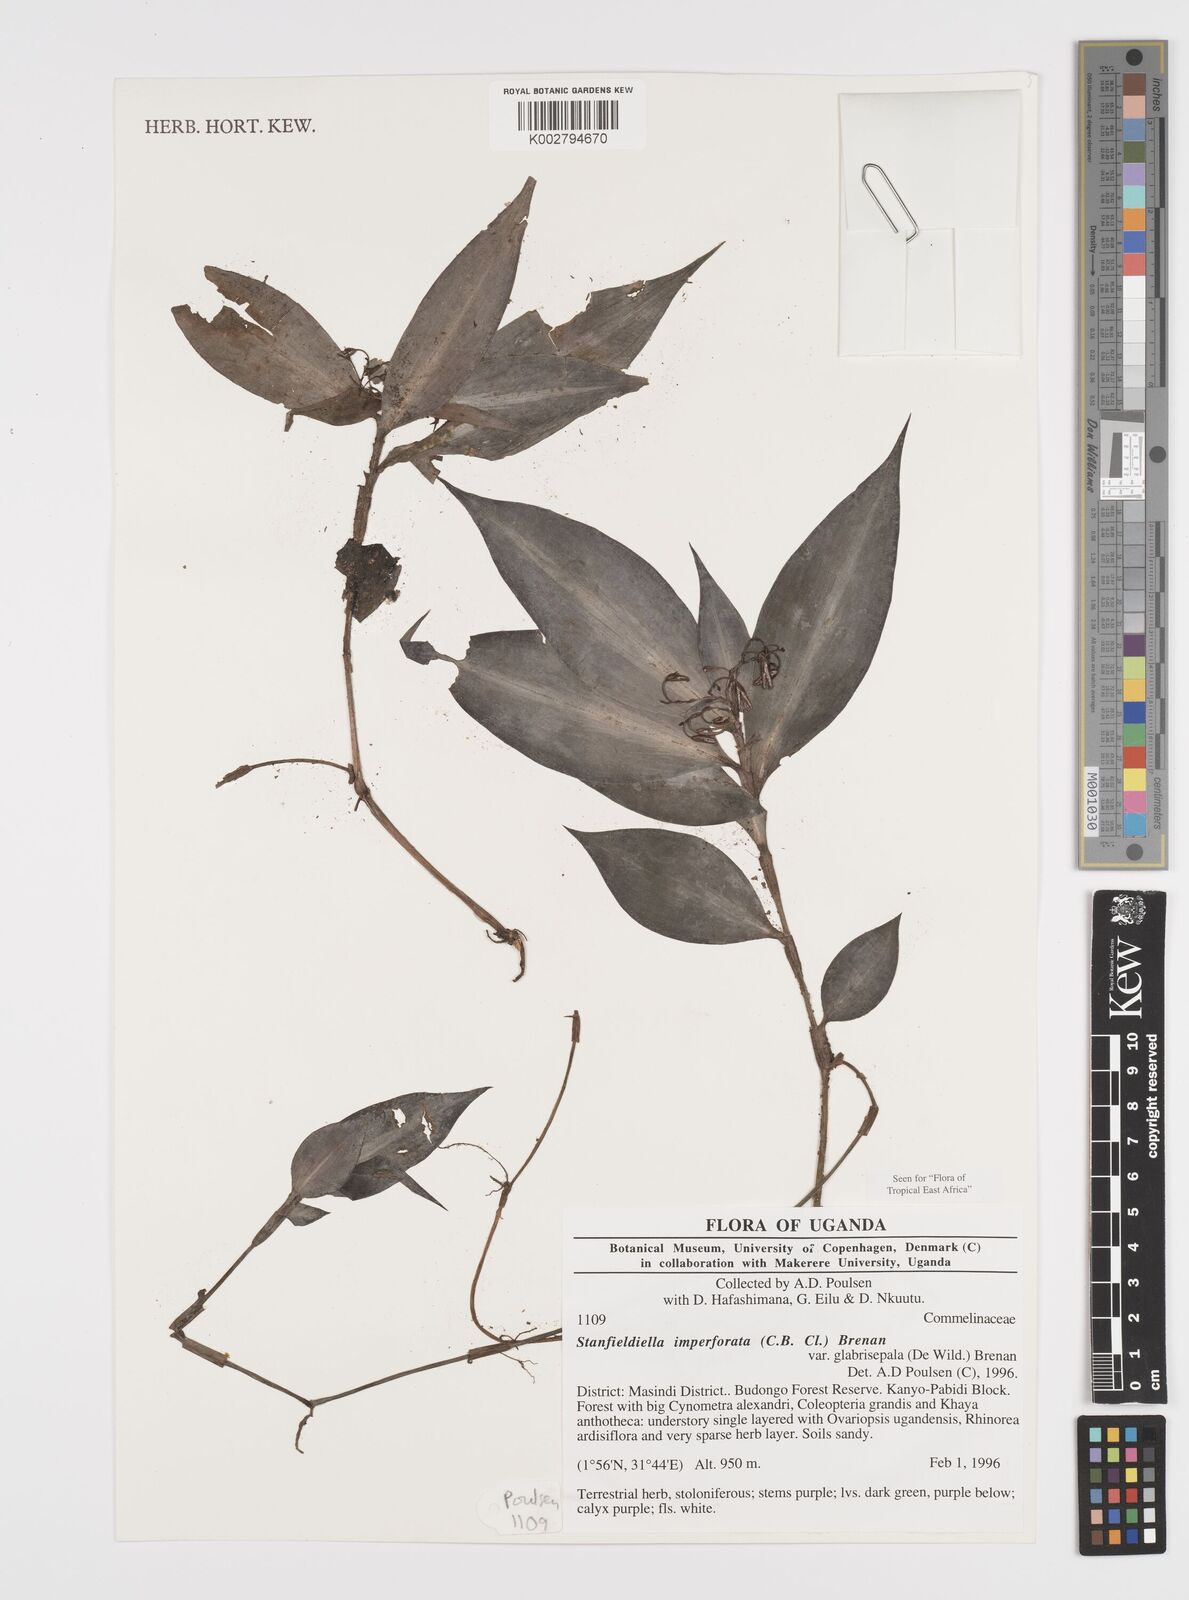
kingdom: Plantae
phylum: Tracheophyta
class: Liliopsida
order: Commelinales
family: Commelinaceae
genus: Stanfieldiella
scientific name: Stanfieldiella imperforata
